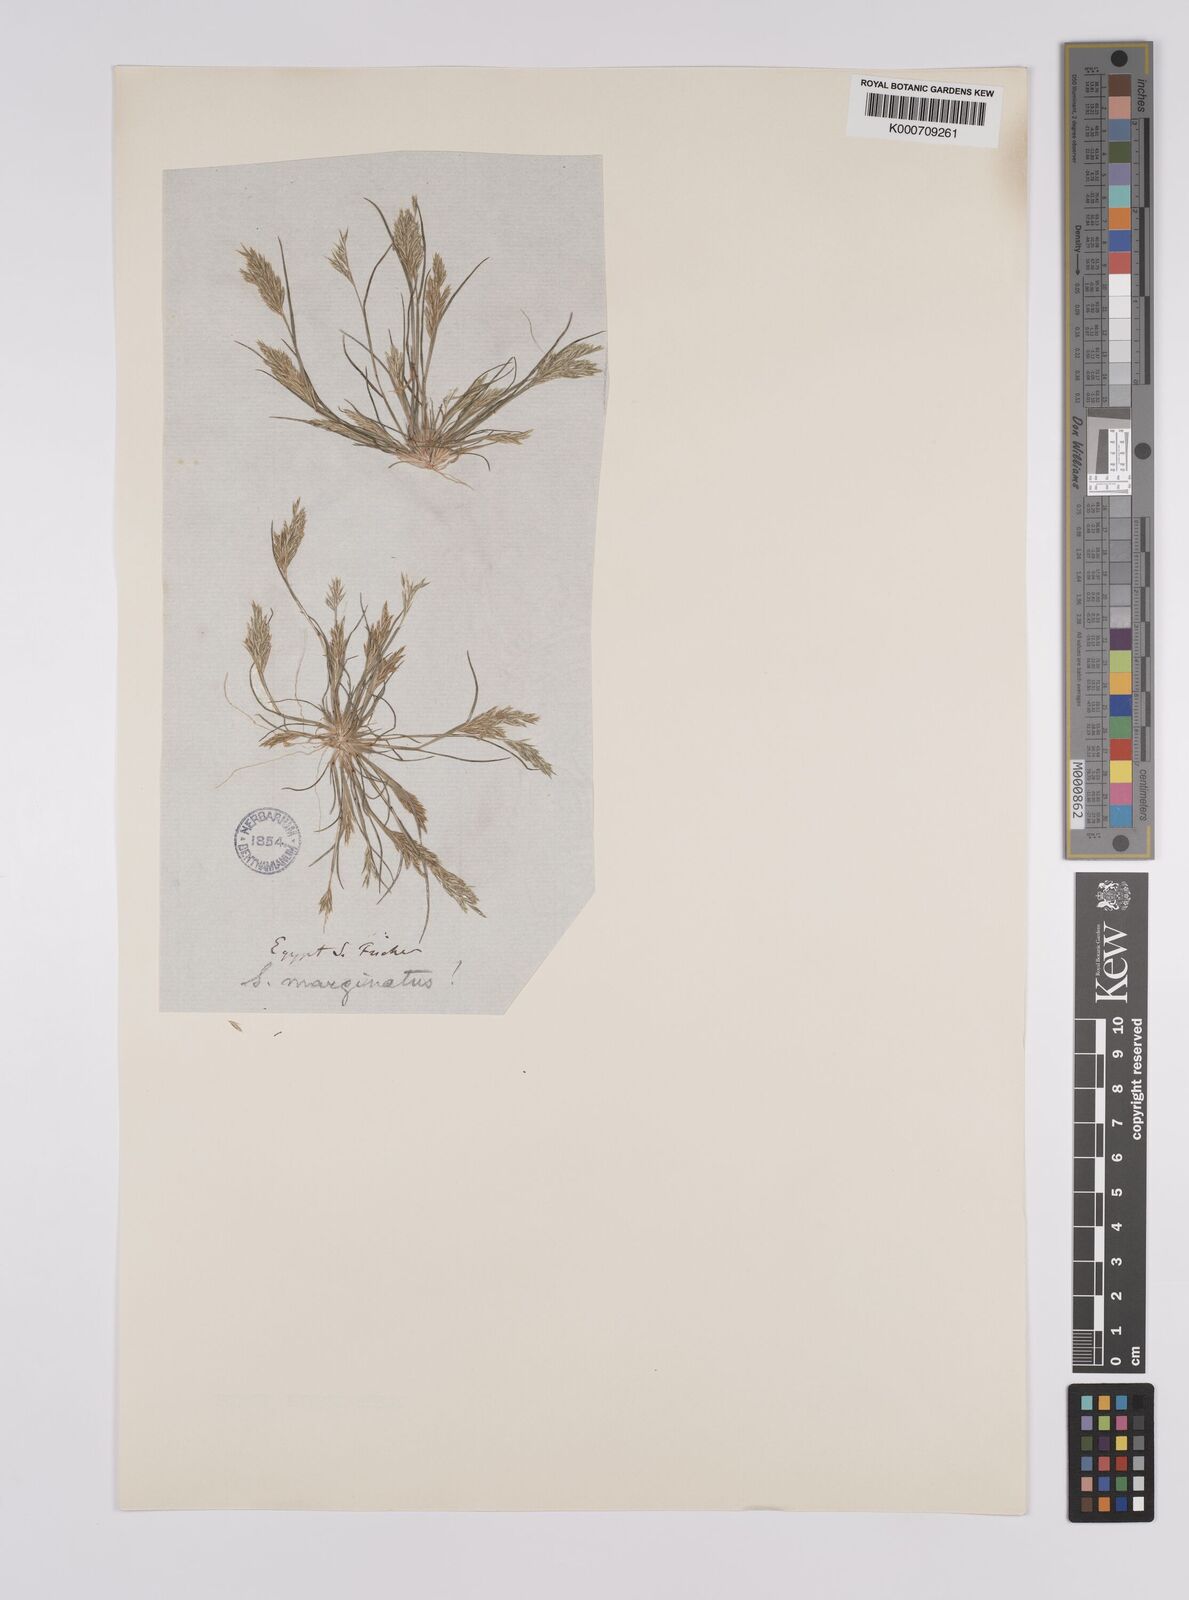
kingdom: Plantae
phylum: Tracheophyta
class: Liliopsida
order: Poales
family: Poaceae
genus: Schismus
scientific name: Schismus barbatus
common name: Kelch-grass
